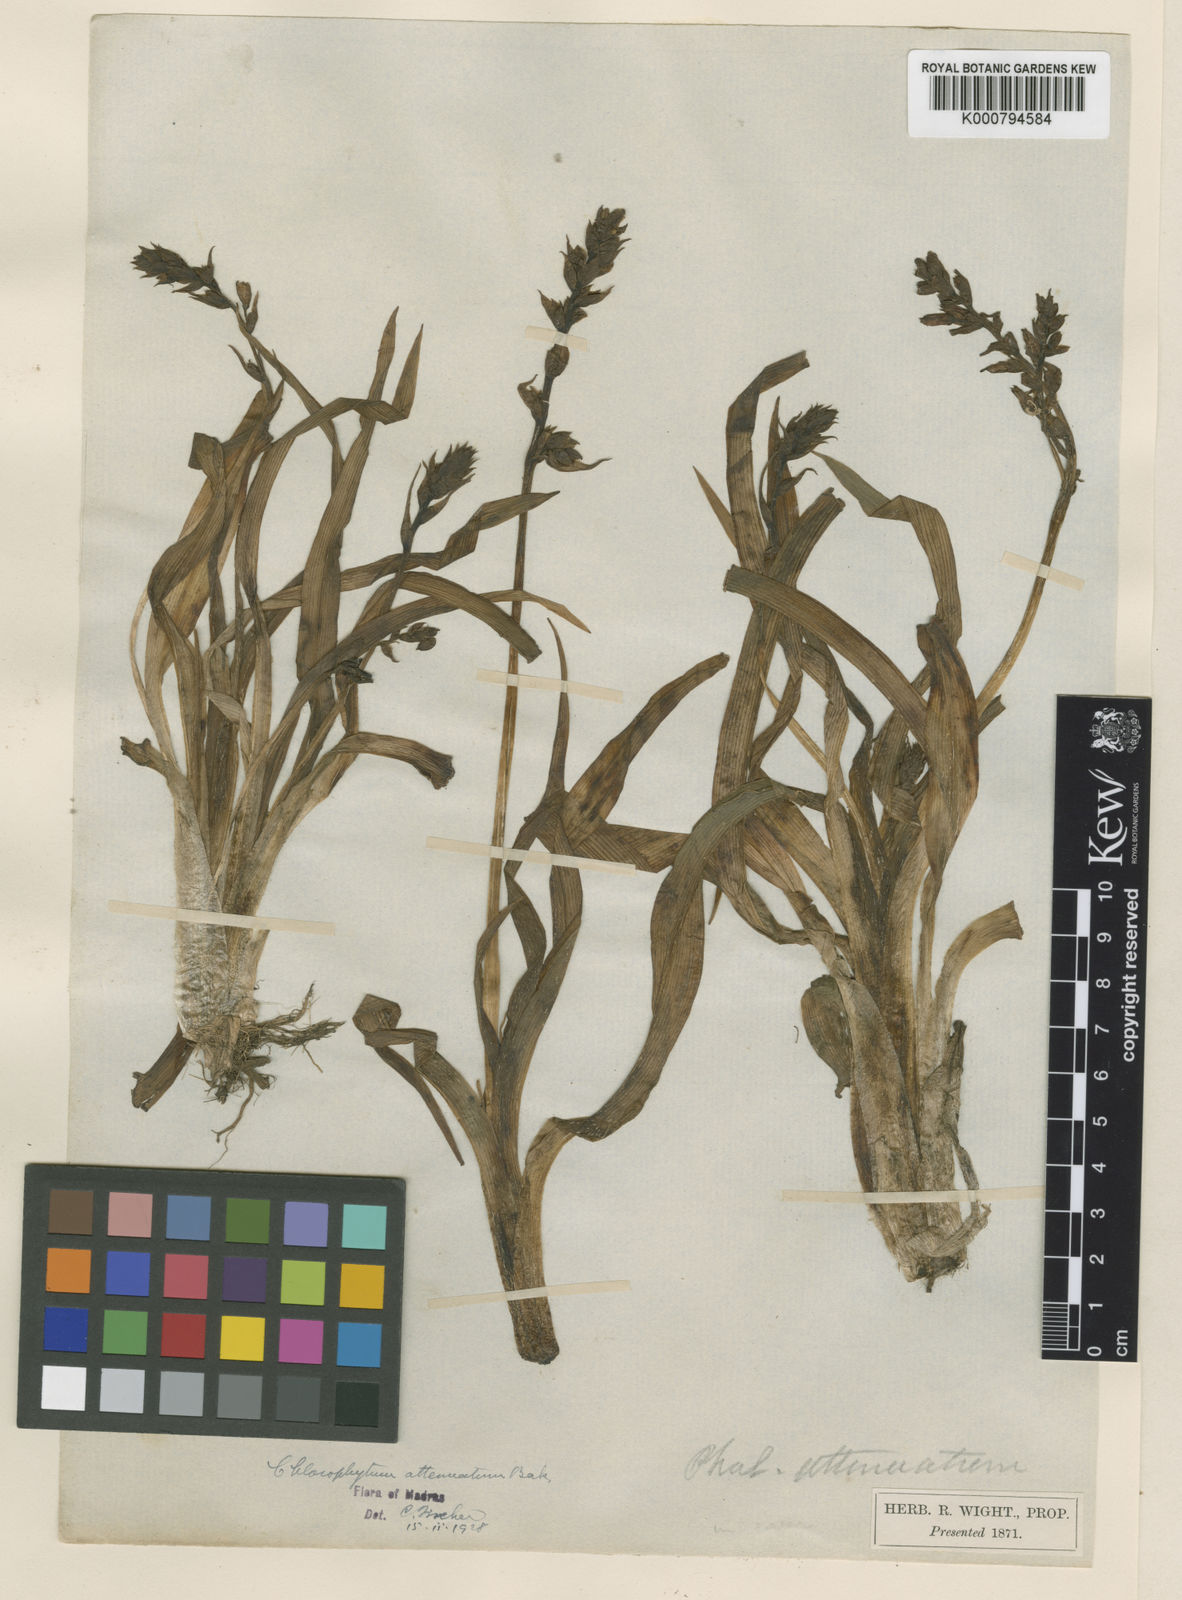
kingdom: Plantae
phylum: Tracheophyta
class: Liliopsida
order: Asparagales
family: Asparagaceae
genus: Chlorophytum
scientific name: Chlorophytum indicum
